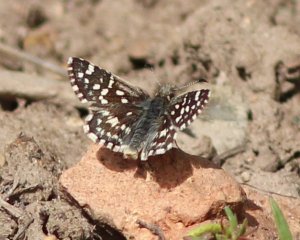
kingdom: Animalia
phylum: Arthropoda
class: Insecta
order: Lepidoptera
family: Hesperiidae
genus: Pyrgus
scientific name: Pyrgus ruralis
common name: Two-banded Checkered-Skipper
